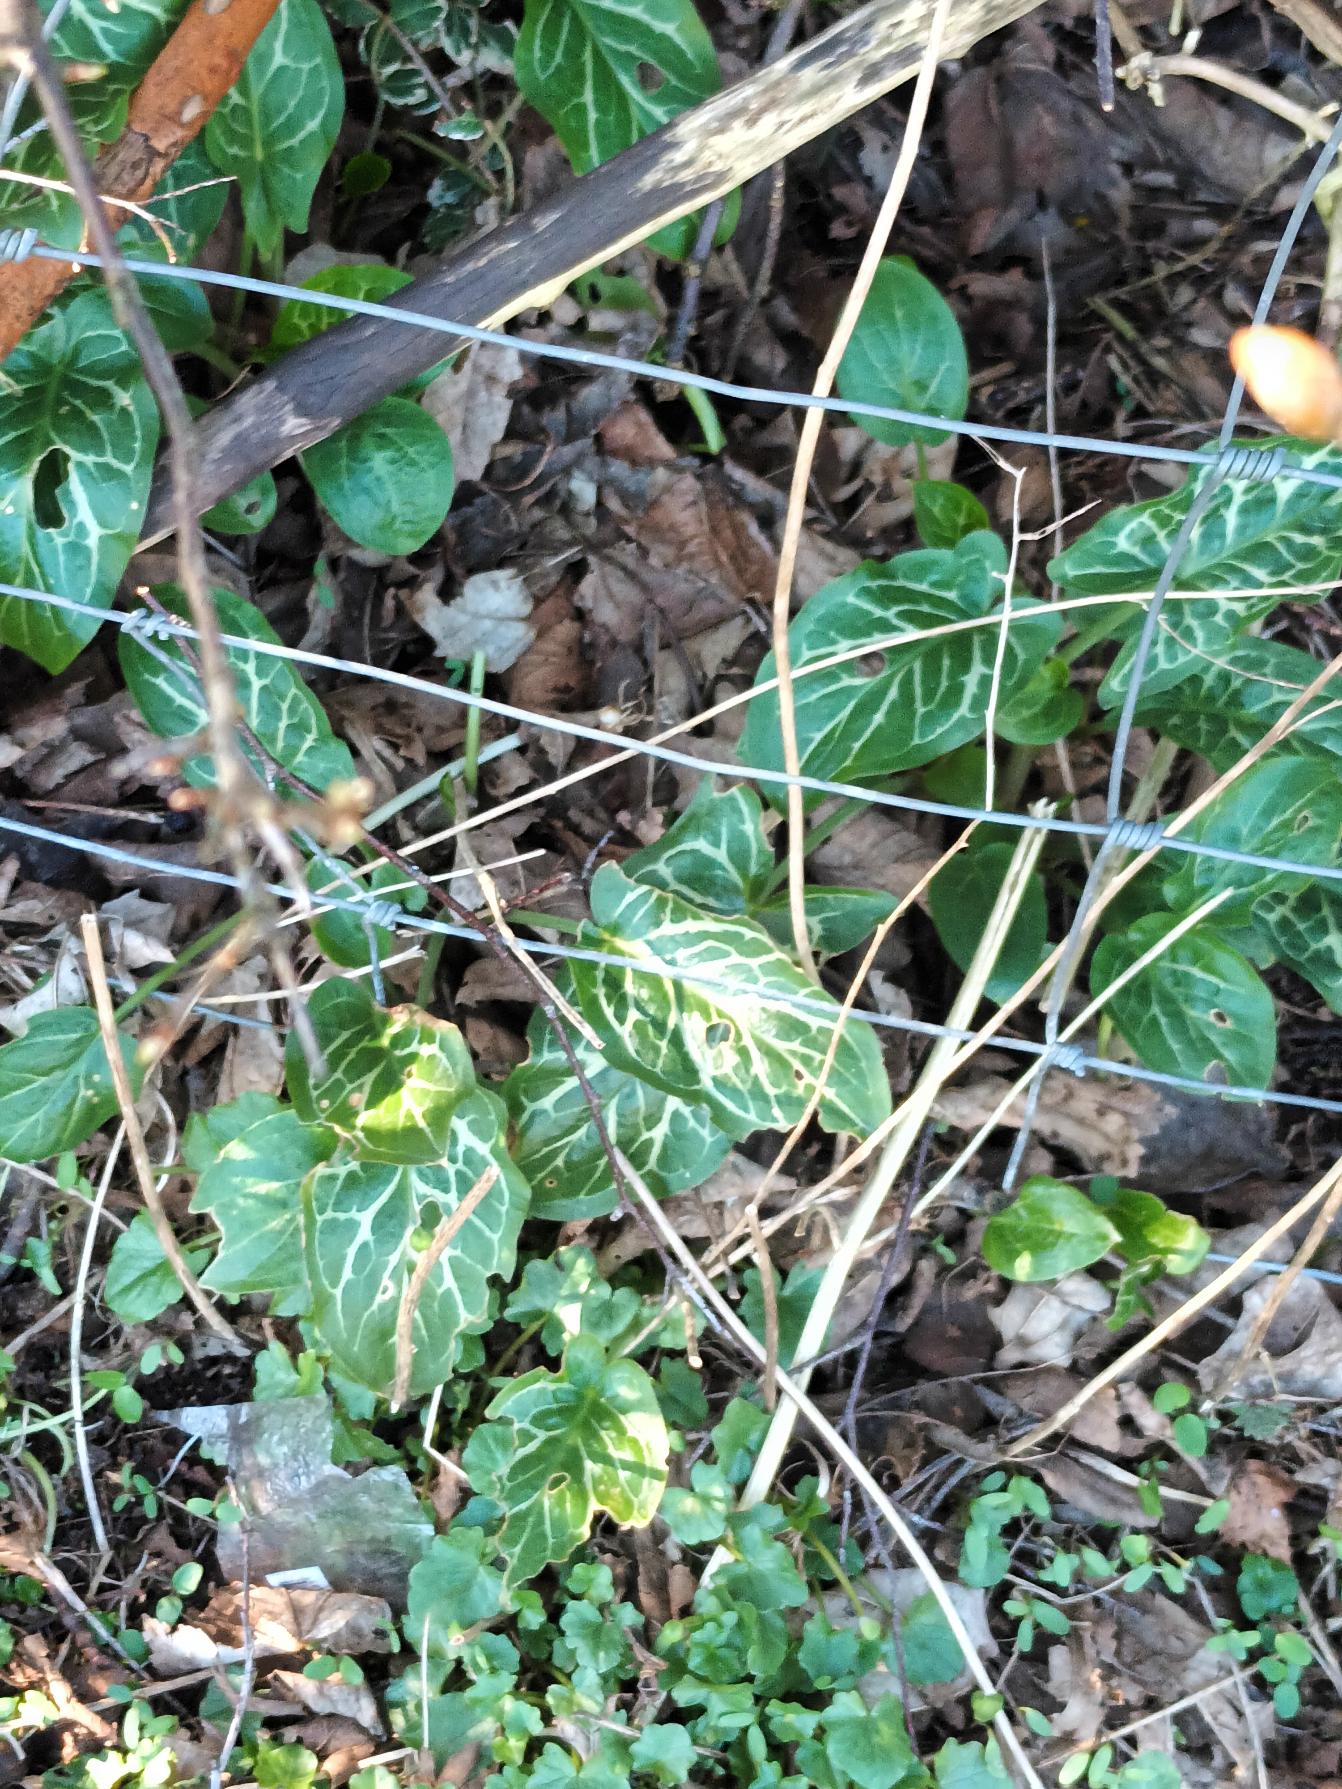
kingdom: Plantae
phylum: Tracheophyta
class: Liliopsida
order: Alismatales
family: Araceae
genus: Arum
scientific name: Arum italicum
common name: Italiensk arum
